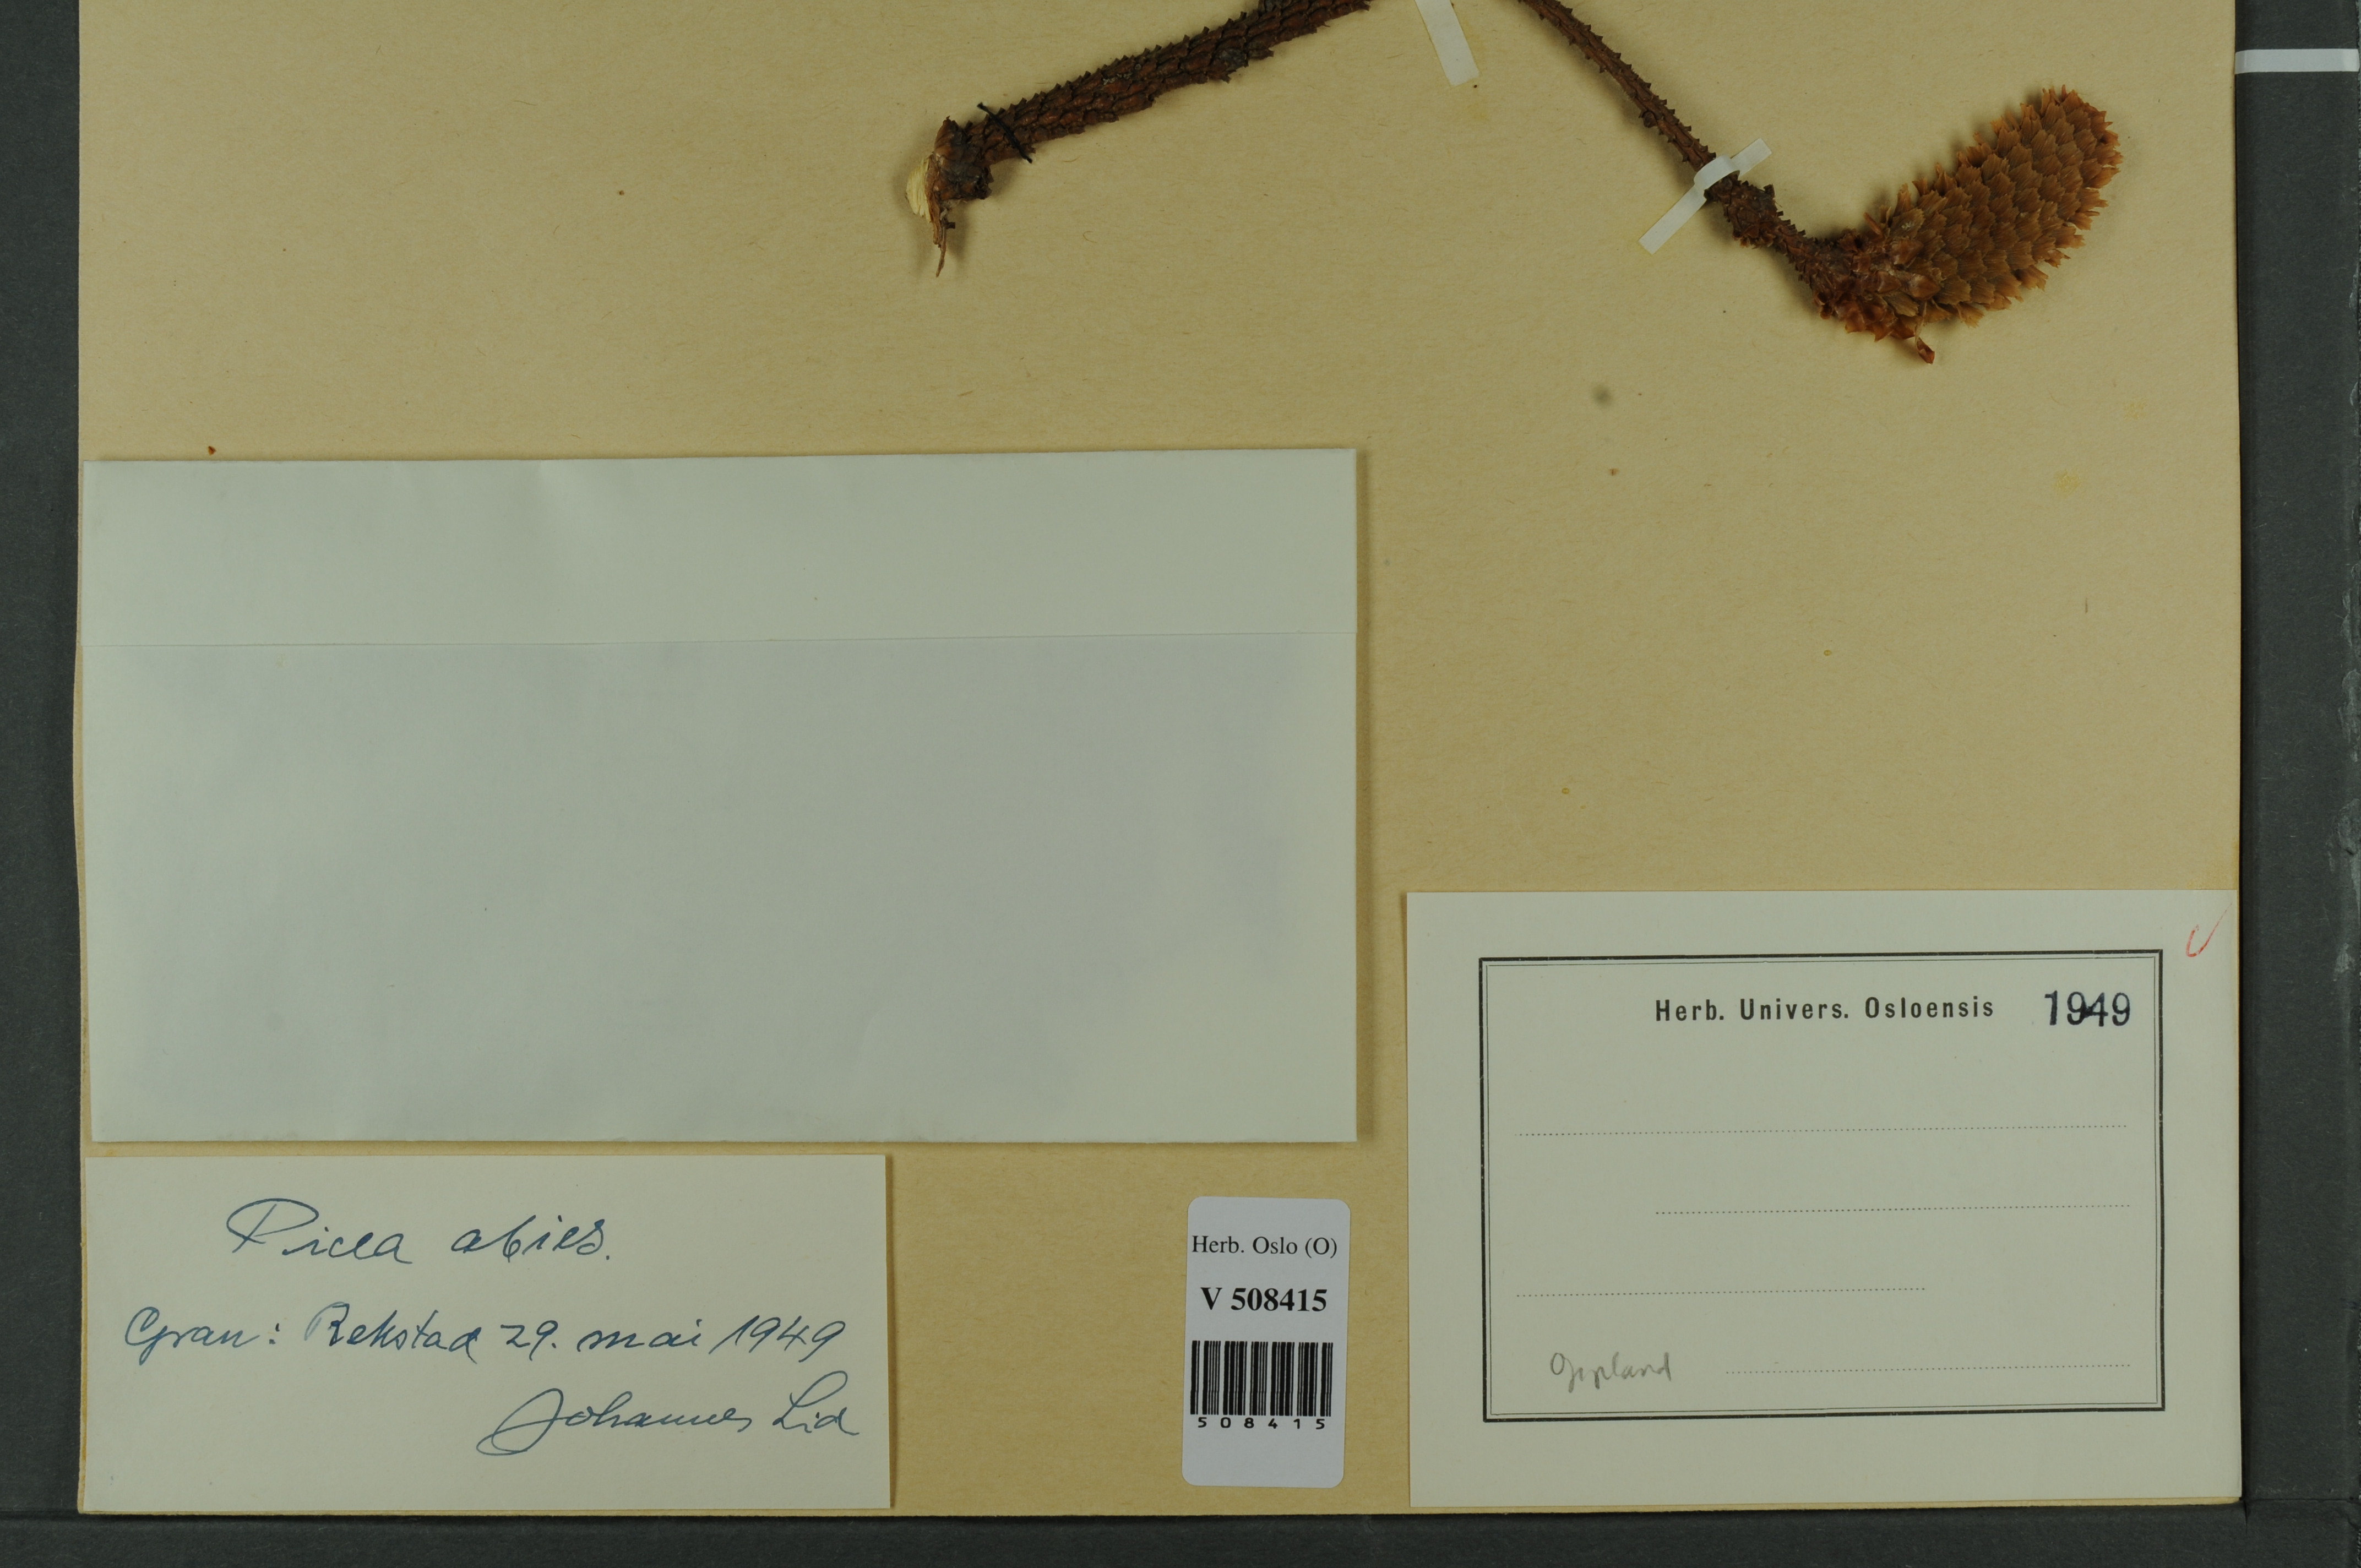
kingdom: Plantae
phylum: Tracheophyta
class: Pinopsida
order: Pinales
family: Pinaceae
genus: Picea
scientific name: Picea abies
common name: Norway spruce
